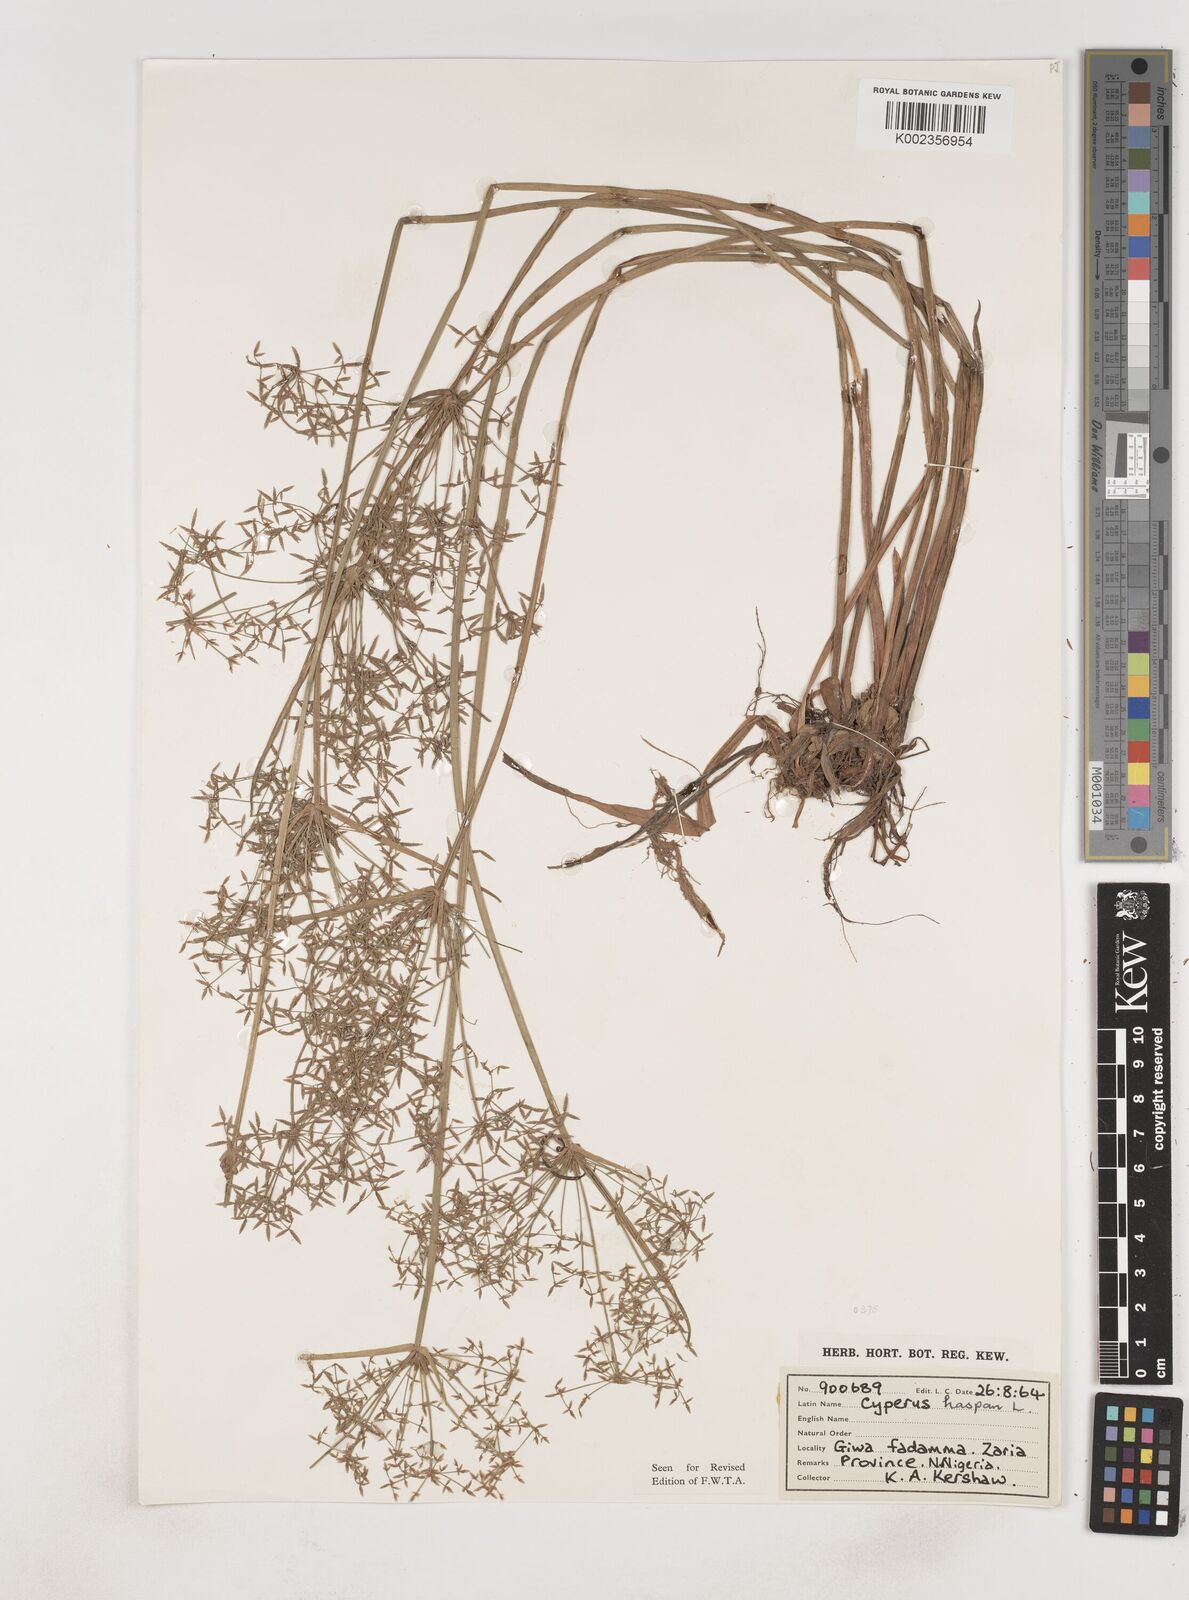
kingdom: Plantae
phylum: Tracheophyta
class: Liliopsida
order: Poales
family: Cyperaceae
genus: Cyperus
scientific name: Cyperus haspan
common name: Haspan flatsedge
